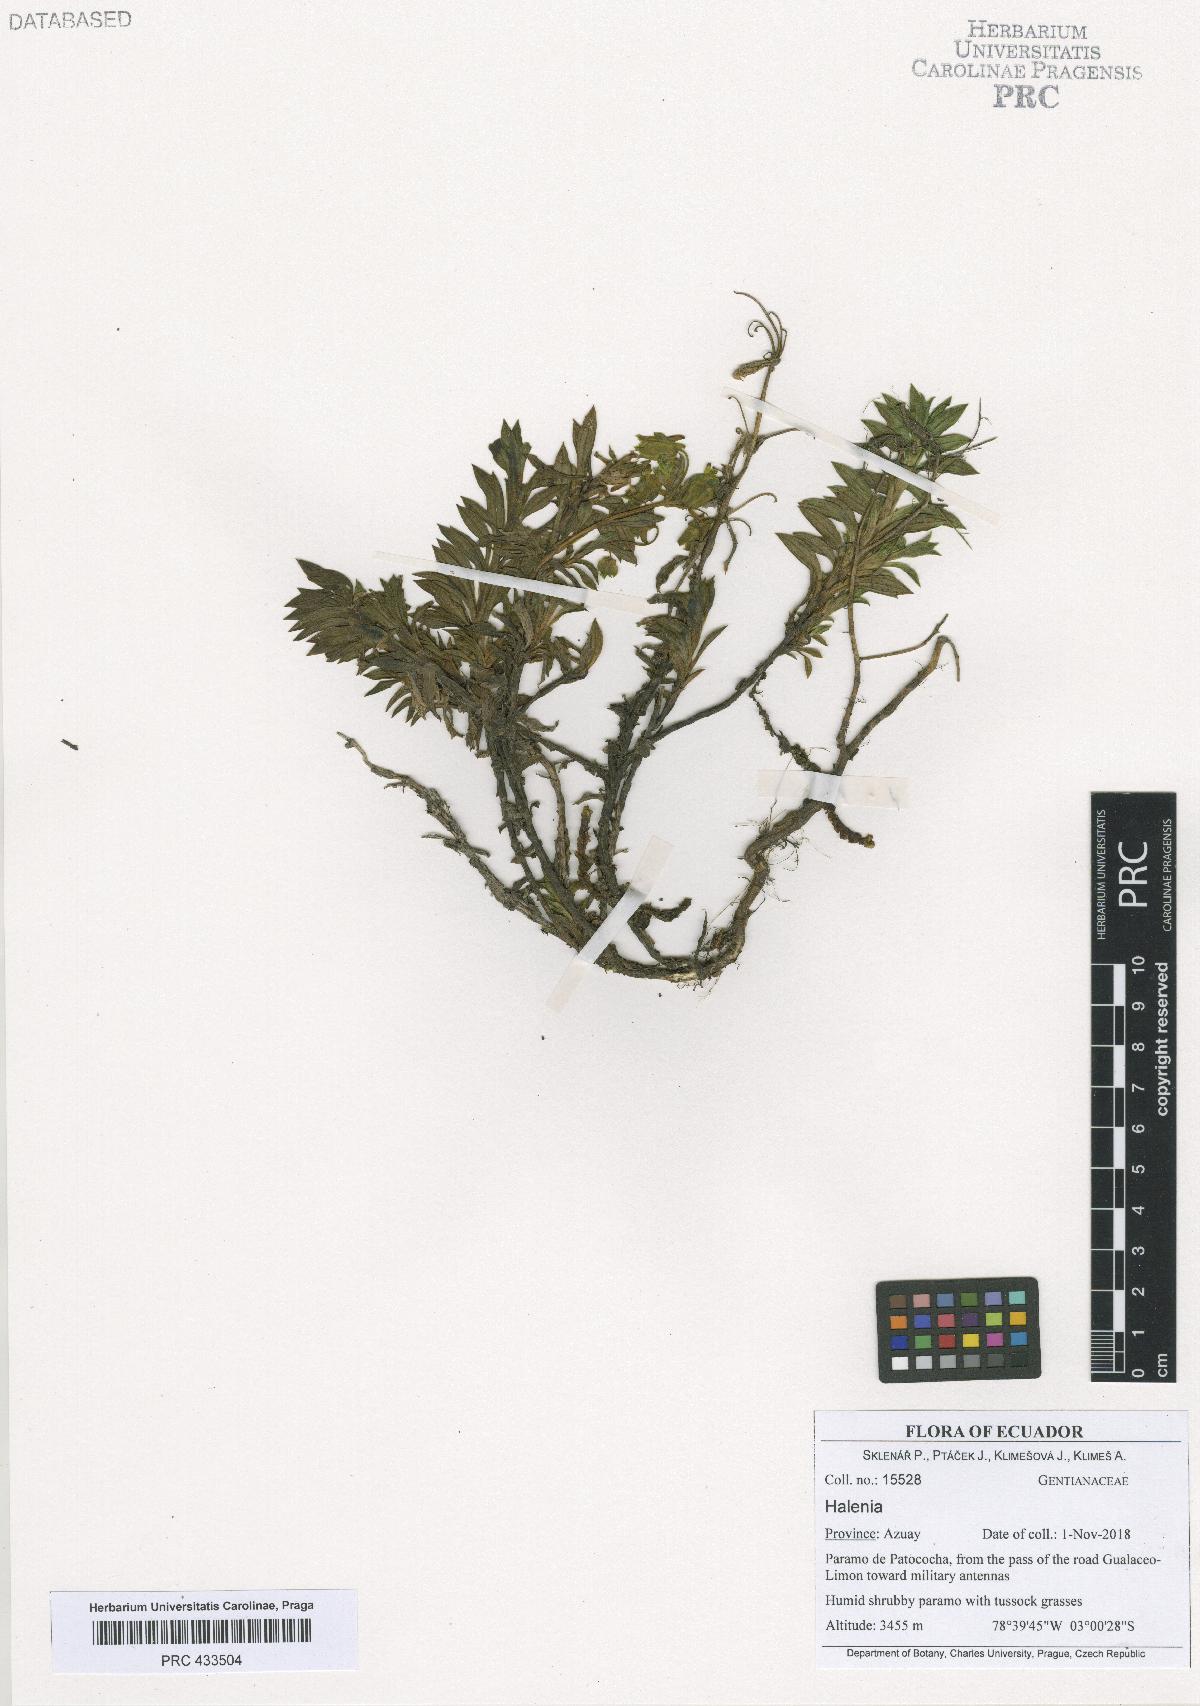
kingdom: Plantae
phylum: Tracheophyta
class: Magnoliopsida
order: Gentianales
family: Gentianaceae
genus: Halenia
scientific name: Halenia
